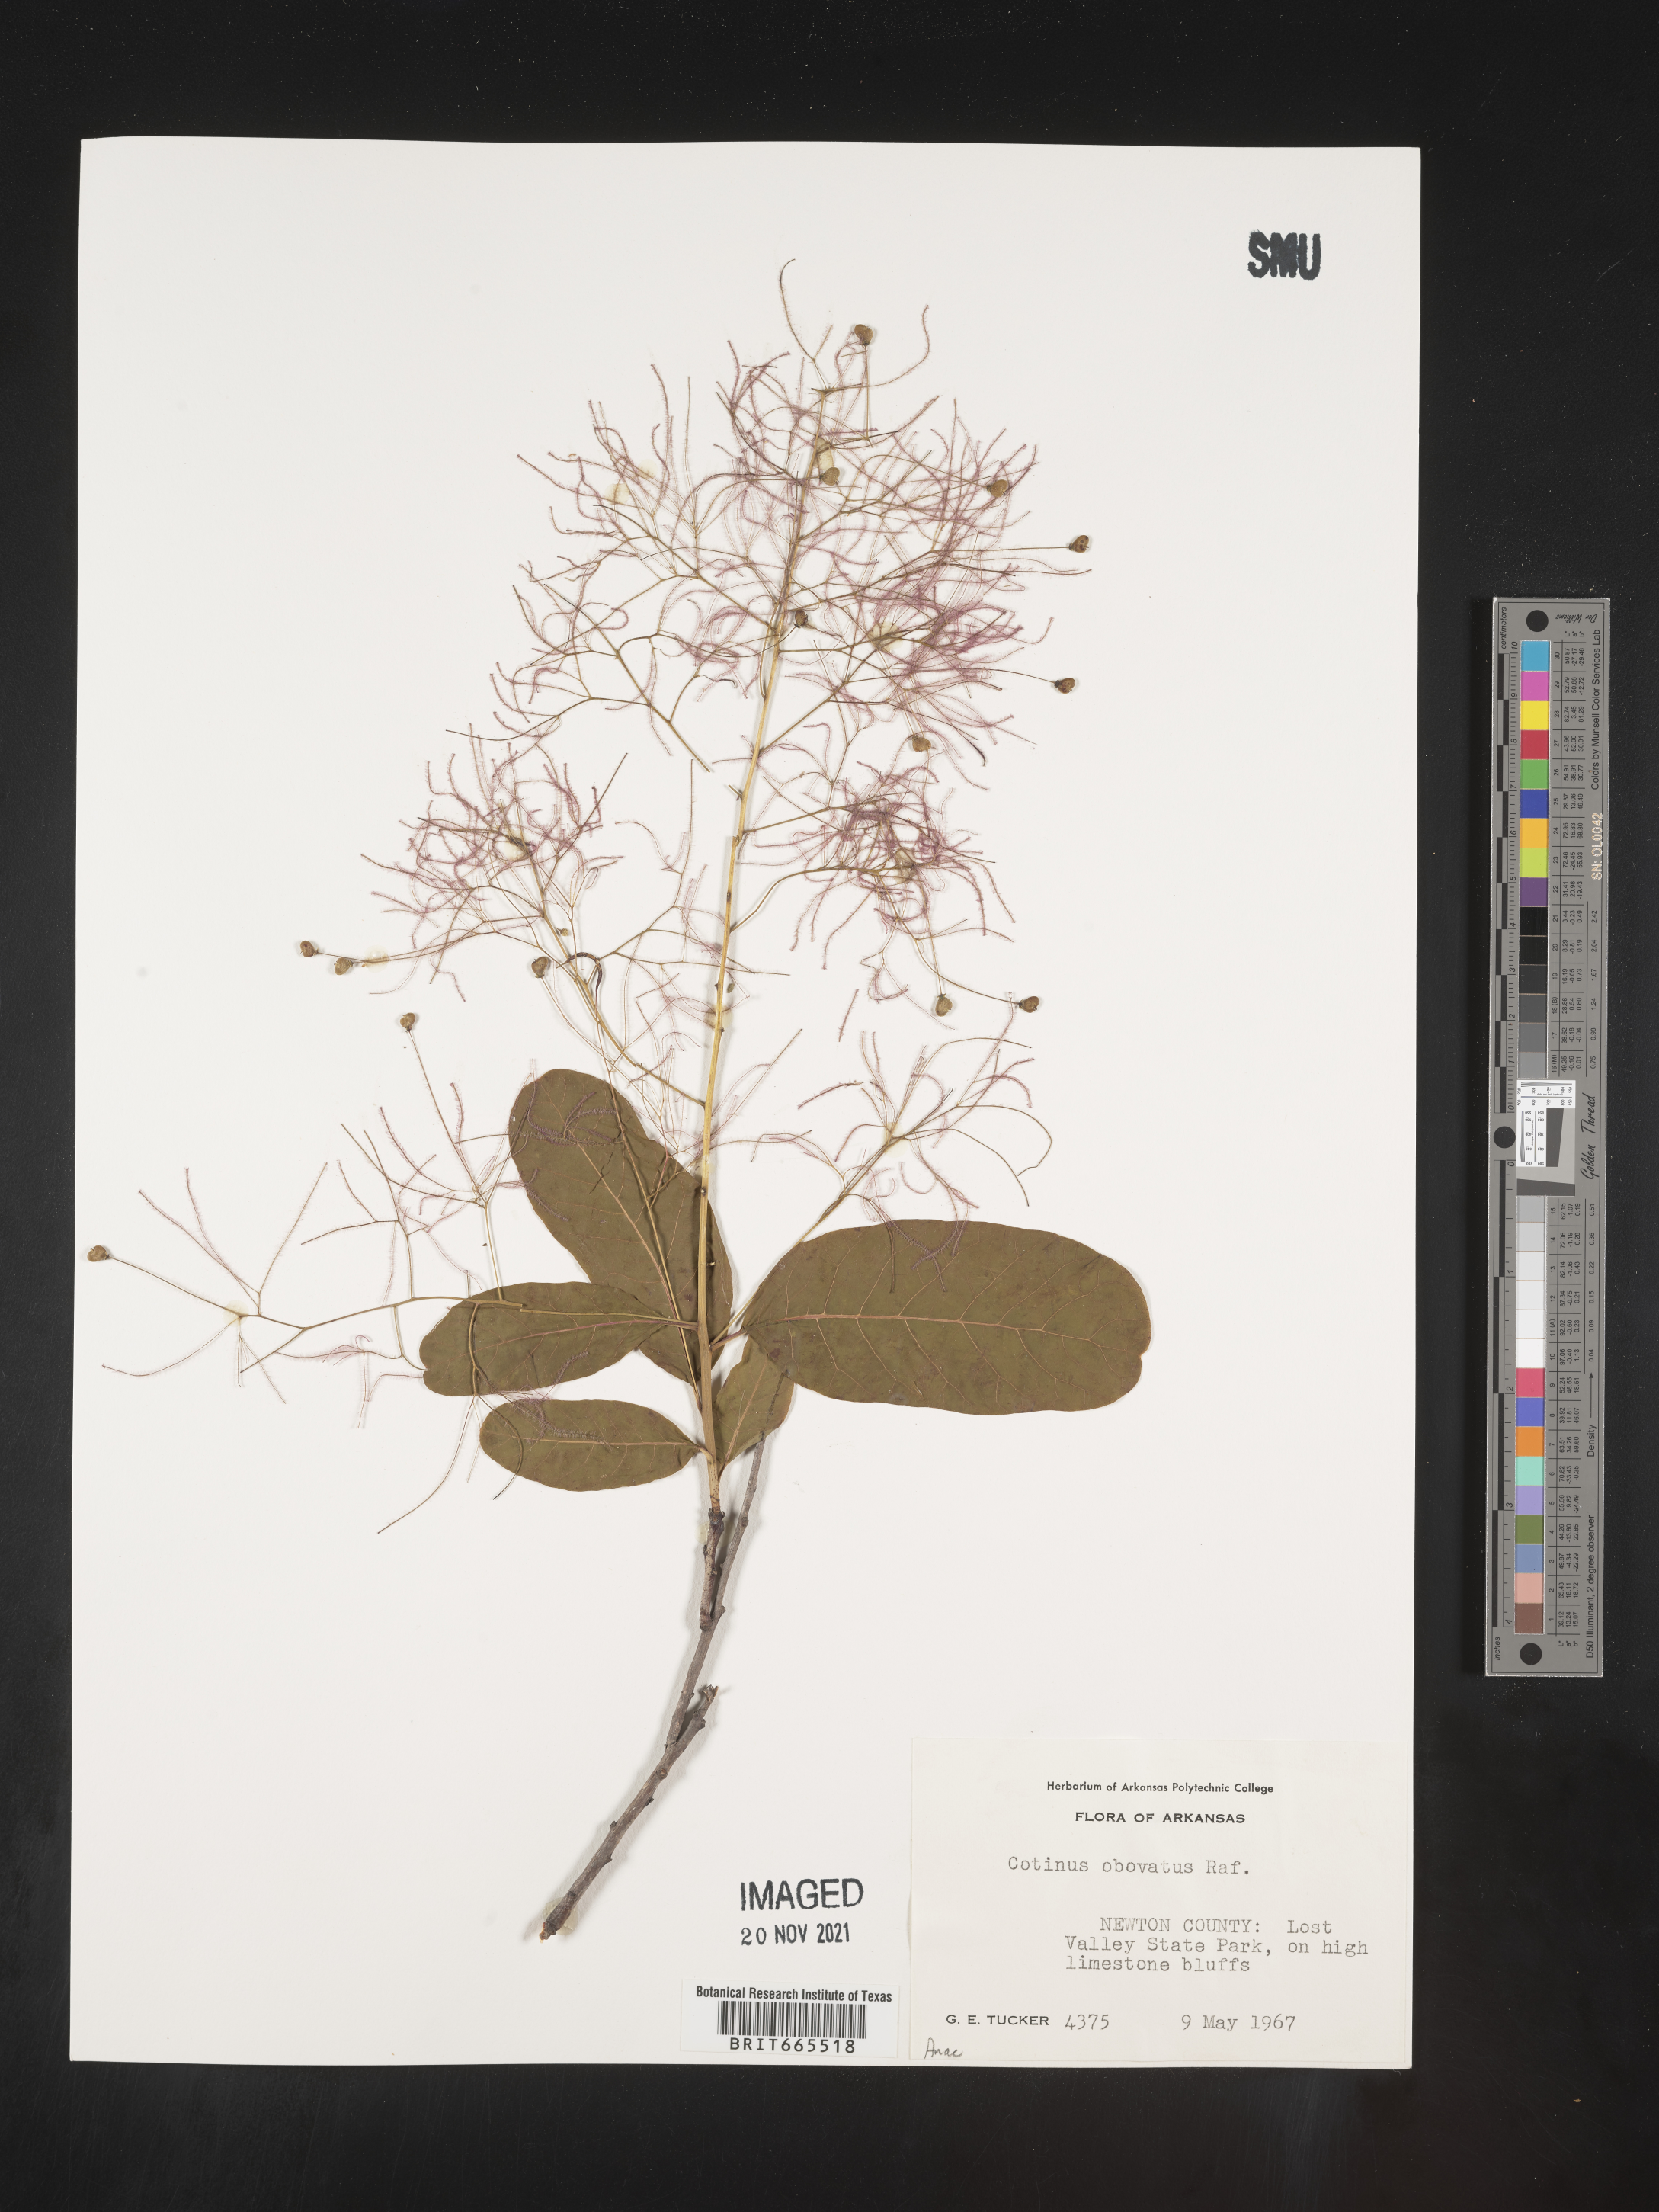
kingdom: Plantae
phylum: Tracheophyta
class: Magnoliopsida
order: Sapindales
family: Anacardiaceae
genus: Cotinus
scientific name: Cotinus obovatus
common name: Chittamwood
